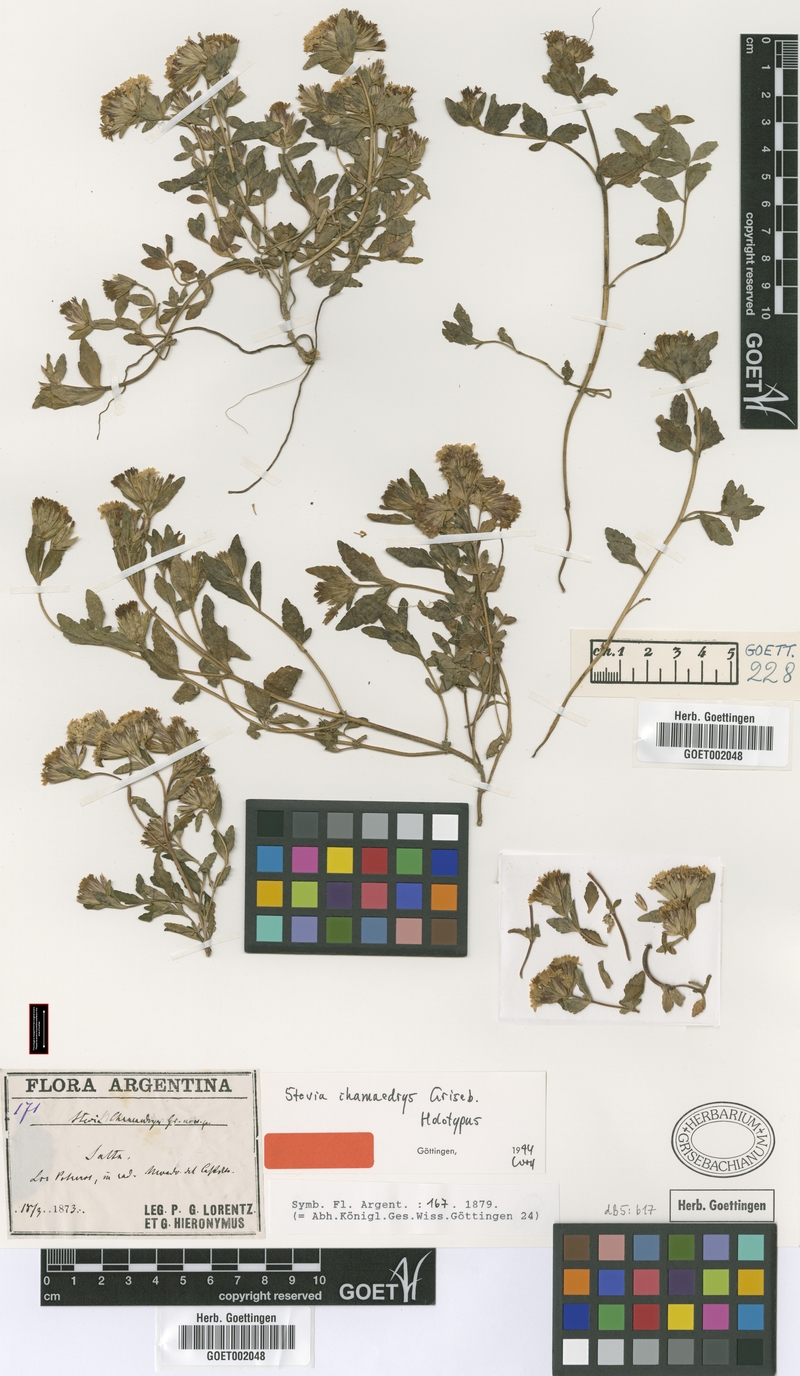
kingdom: Plantae
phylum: Tracheophyta
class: Magnoliopsida
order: Asterales
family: Asteraceae
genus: Stevia
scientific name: Stevia chamaedrys
